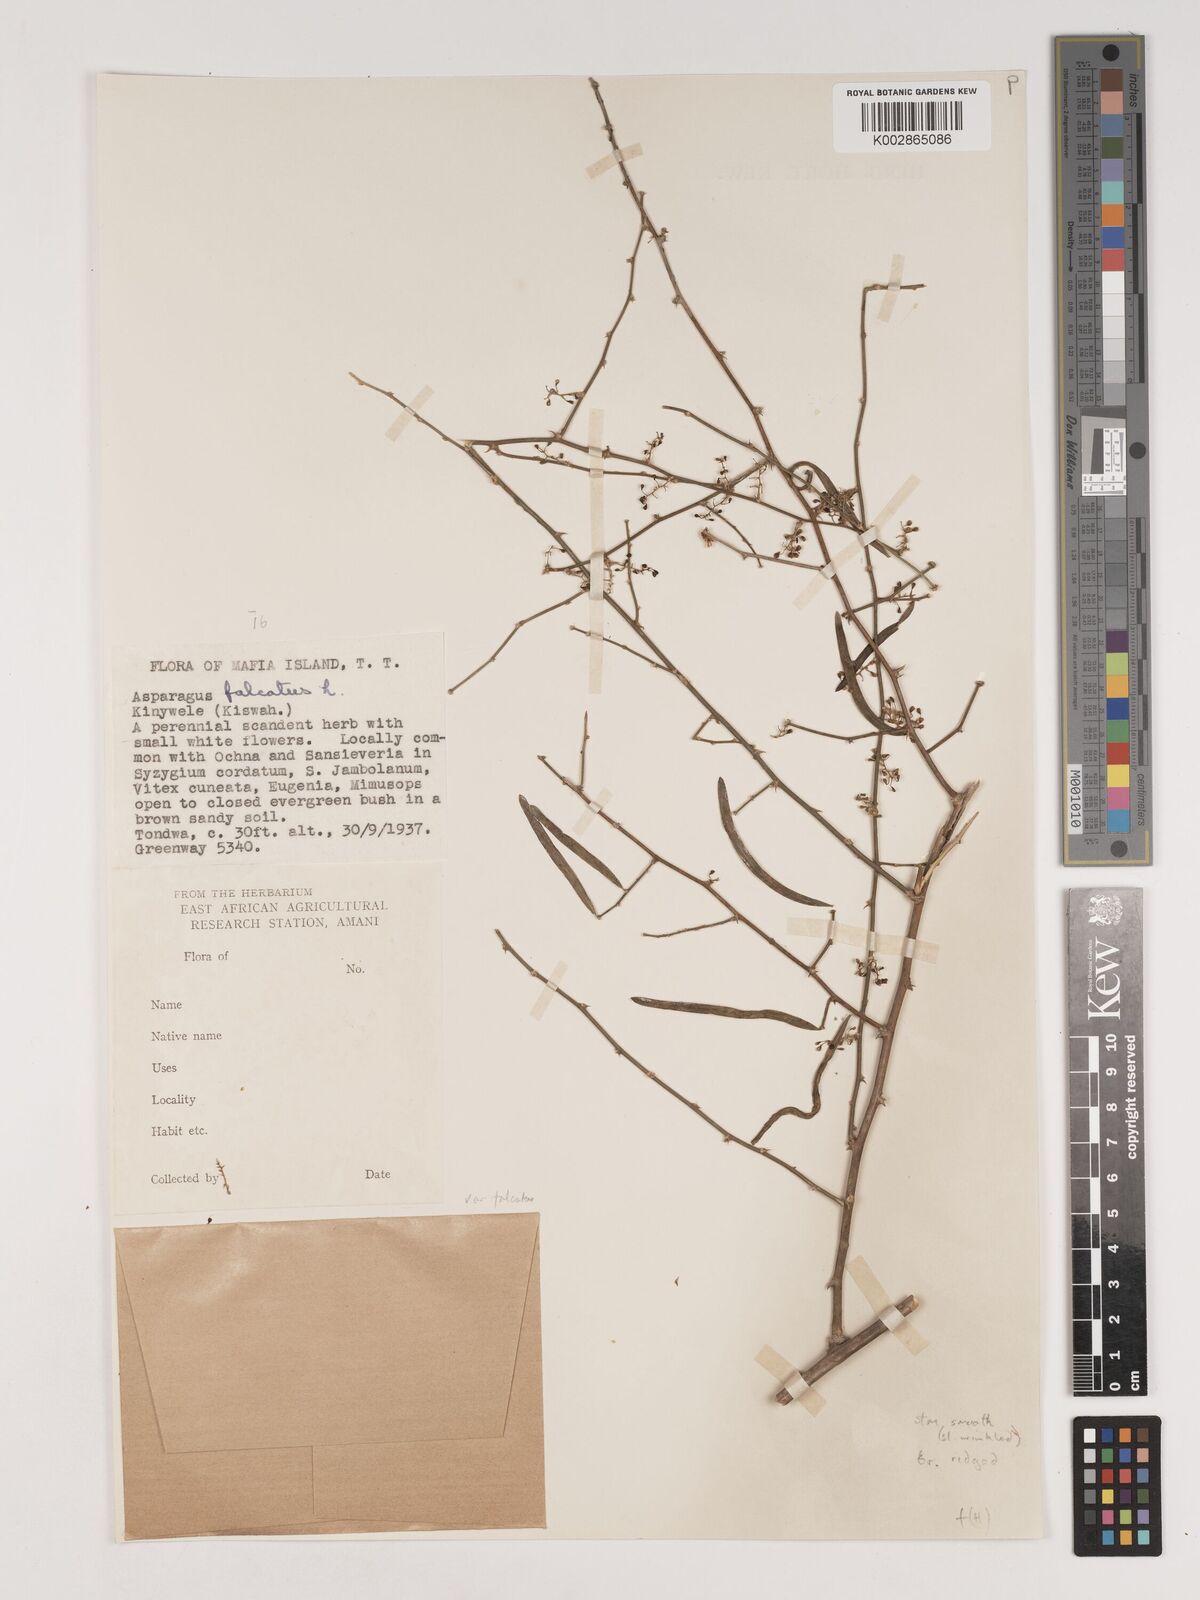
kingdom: Plantae
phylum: Tracheophyta
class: Liliopsida
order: Asparagales
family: Asparagaceae
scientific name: Asparagaceae
